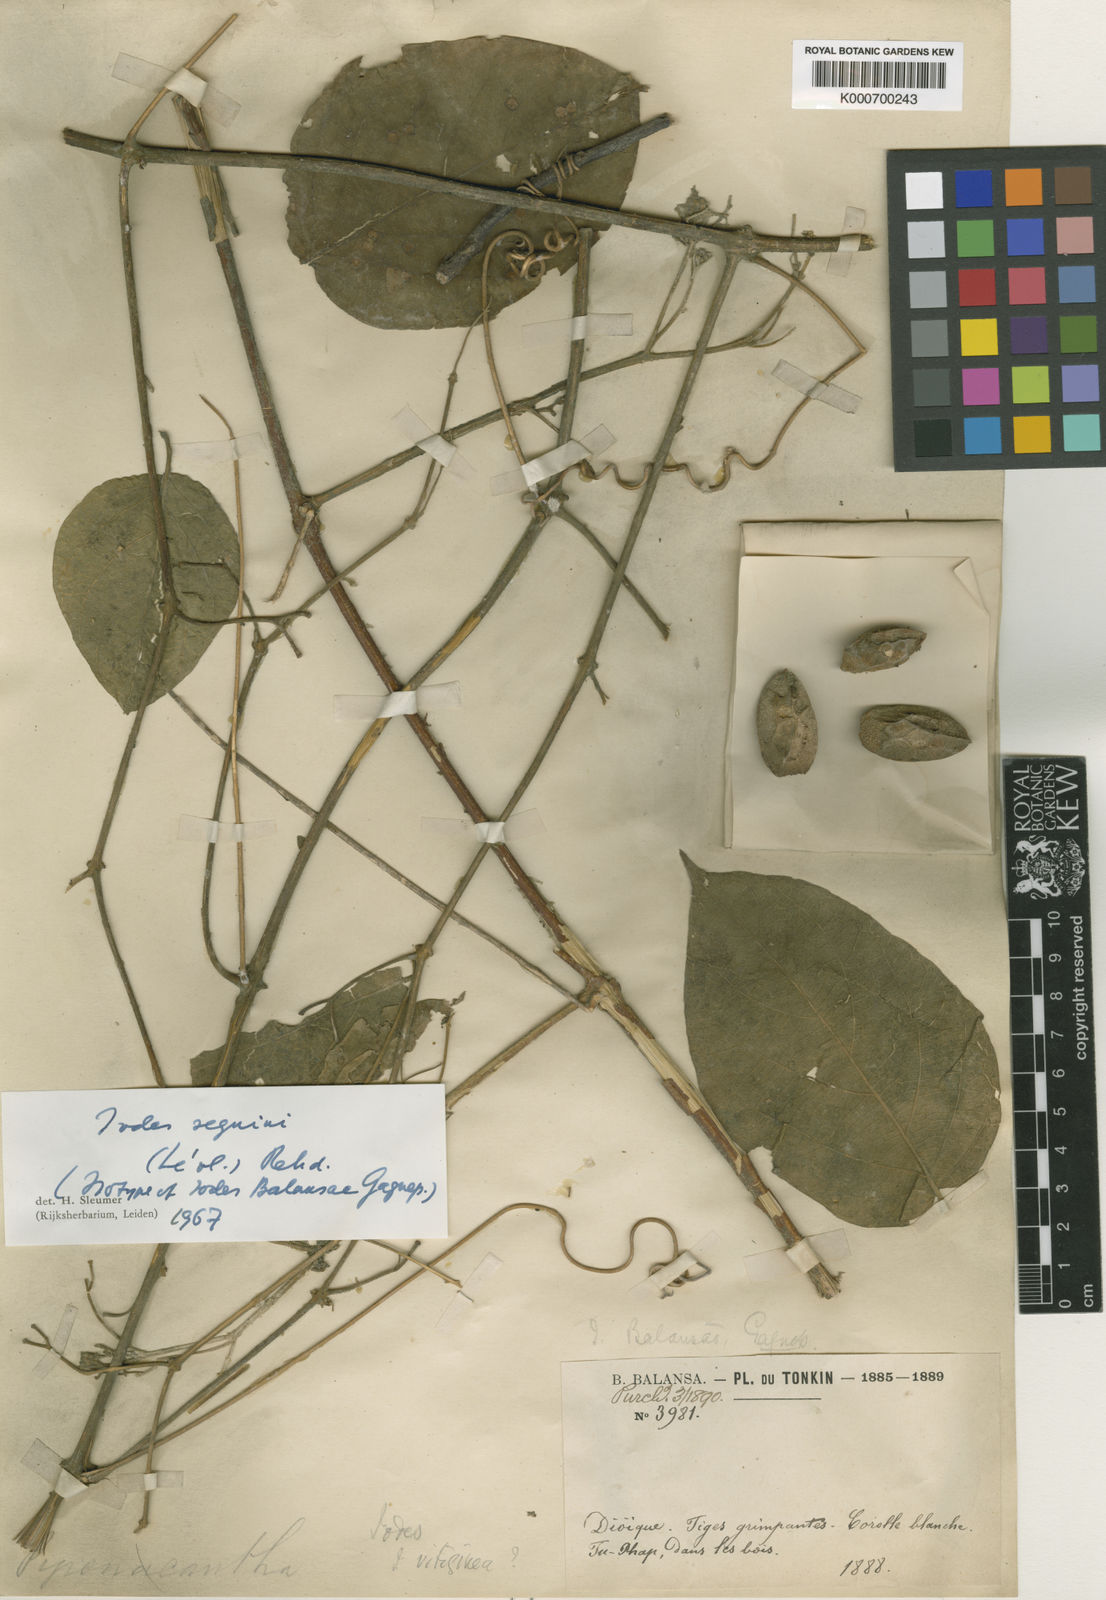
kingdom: Plantae
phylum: Tracheophyta
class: Magnoliopsida
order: Icacinales
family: Icacinaceae
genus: Iodes
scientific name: Iodes
